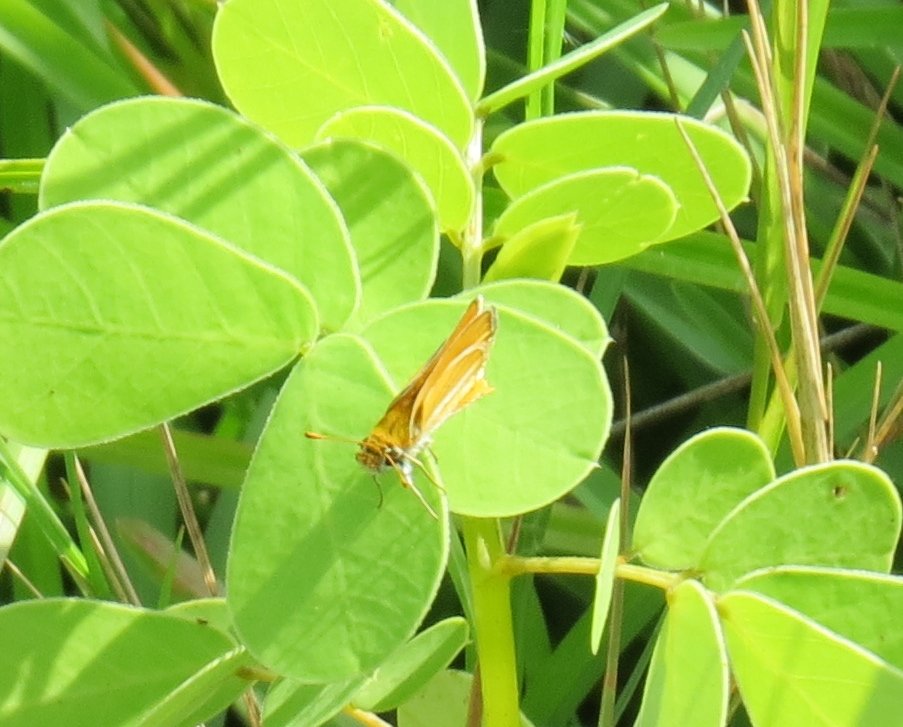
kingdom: Animalia
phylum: Arthropoda
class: Insecta
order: Lepidoptera
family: Hesperiidae
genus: Copaeodes
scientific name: Copaeodes minima
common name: Southern Skipperling
